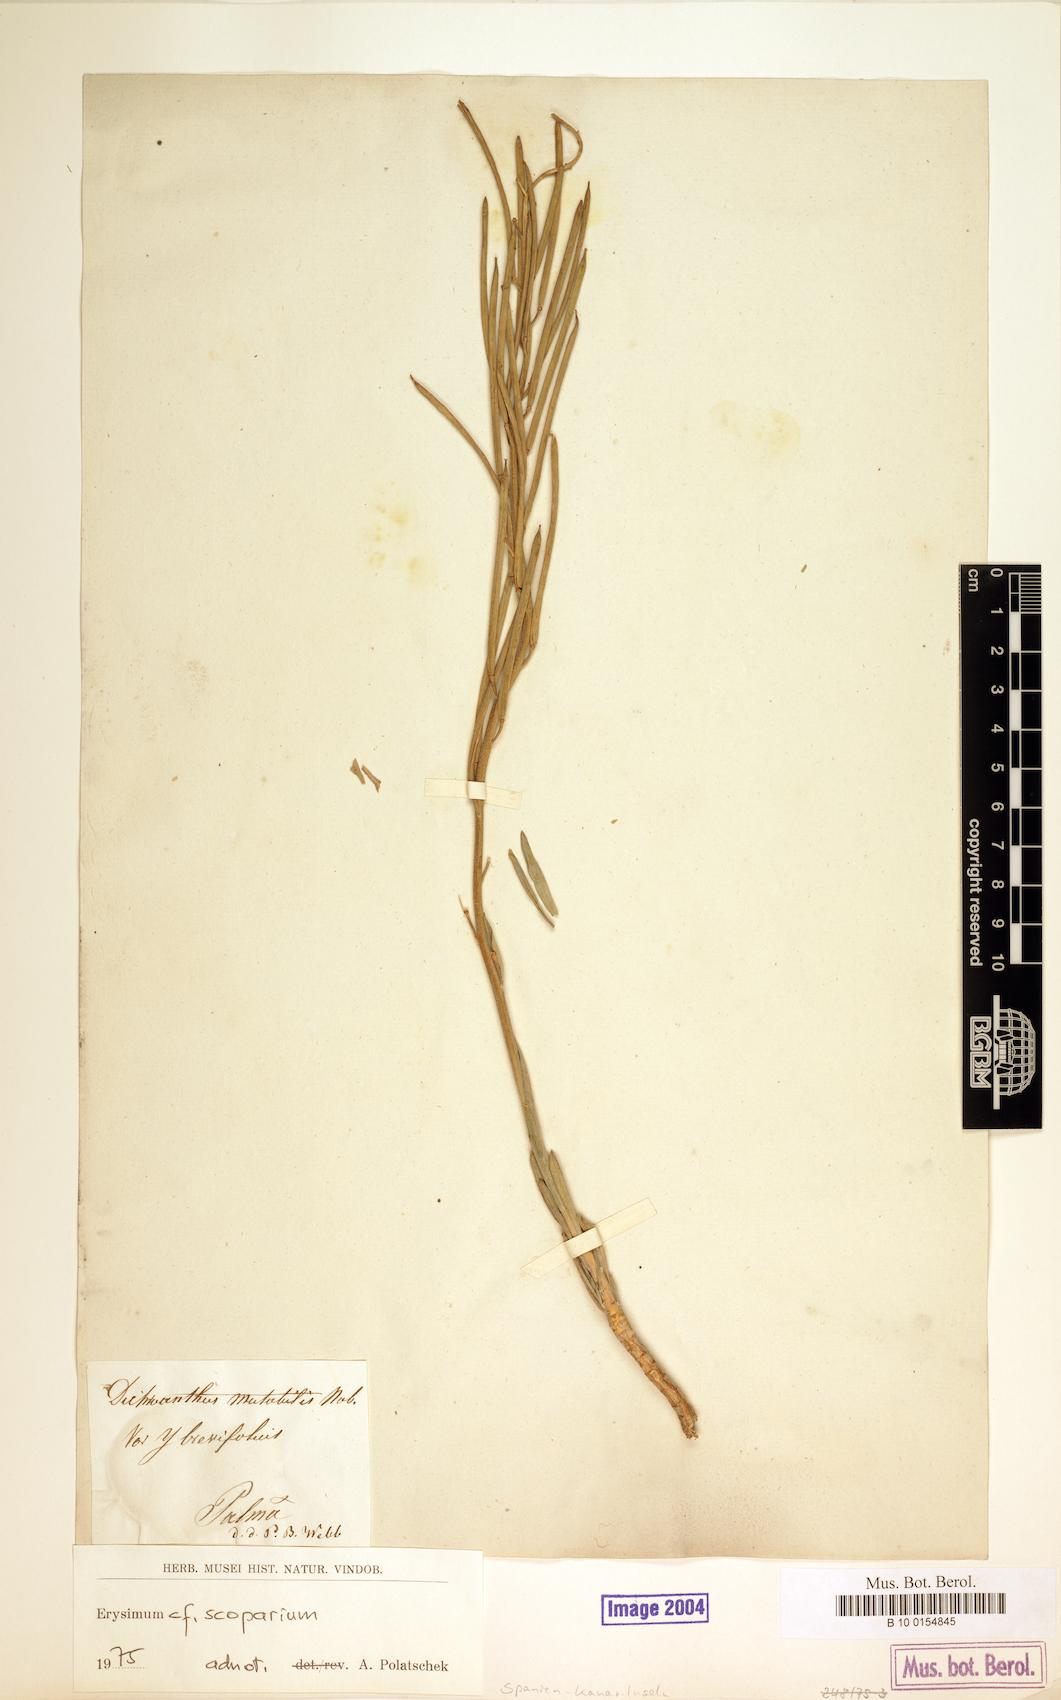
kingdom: Plantae
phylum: Tracheophyta
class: Magnoliopsida
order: Brassicales
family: Brassicaceae
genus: Erysimum
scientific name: Erysimum scoparium
